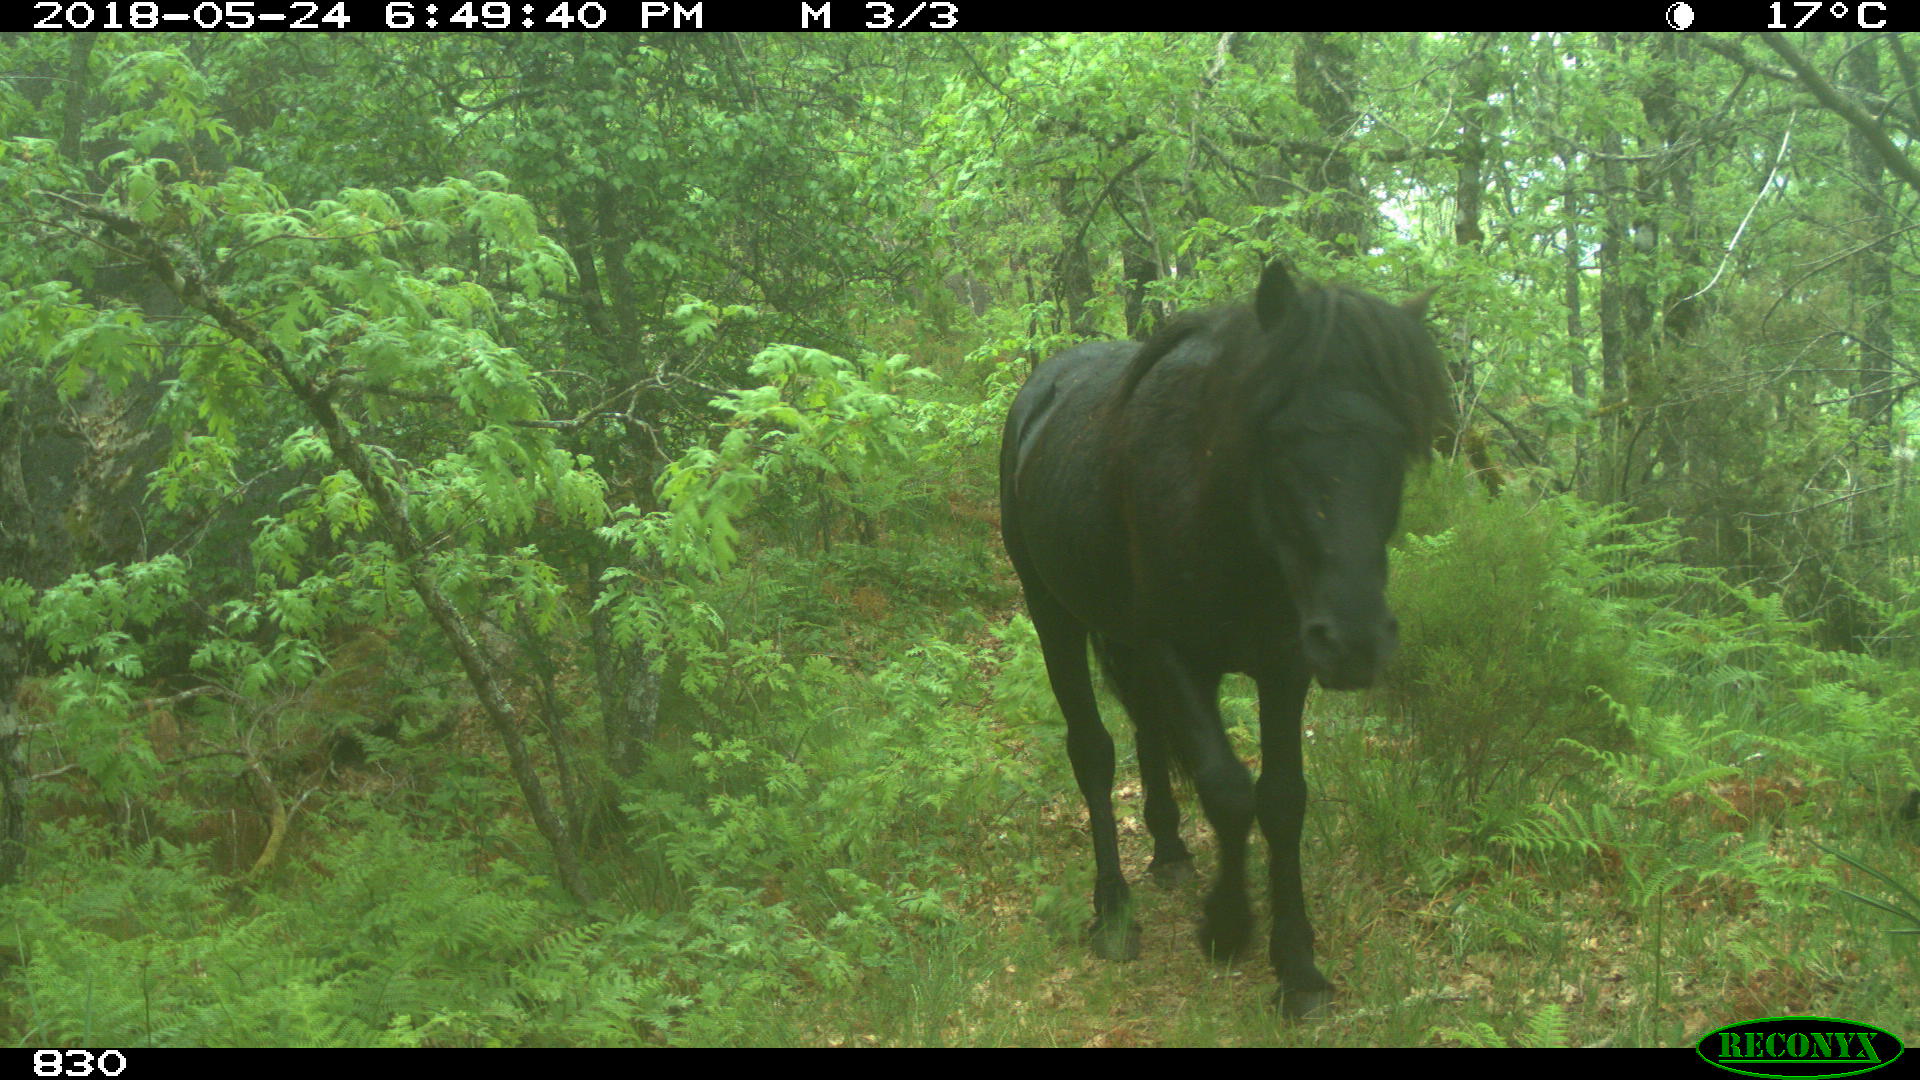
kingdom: Animalia
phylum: Chordata
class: Mammalia
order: Perissodactyla
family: Equidae
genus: Equus
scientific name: Equus caballus
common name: Horse
